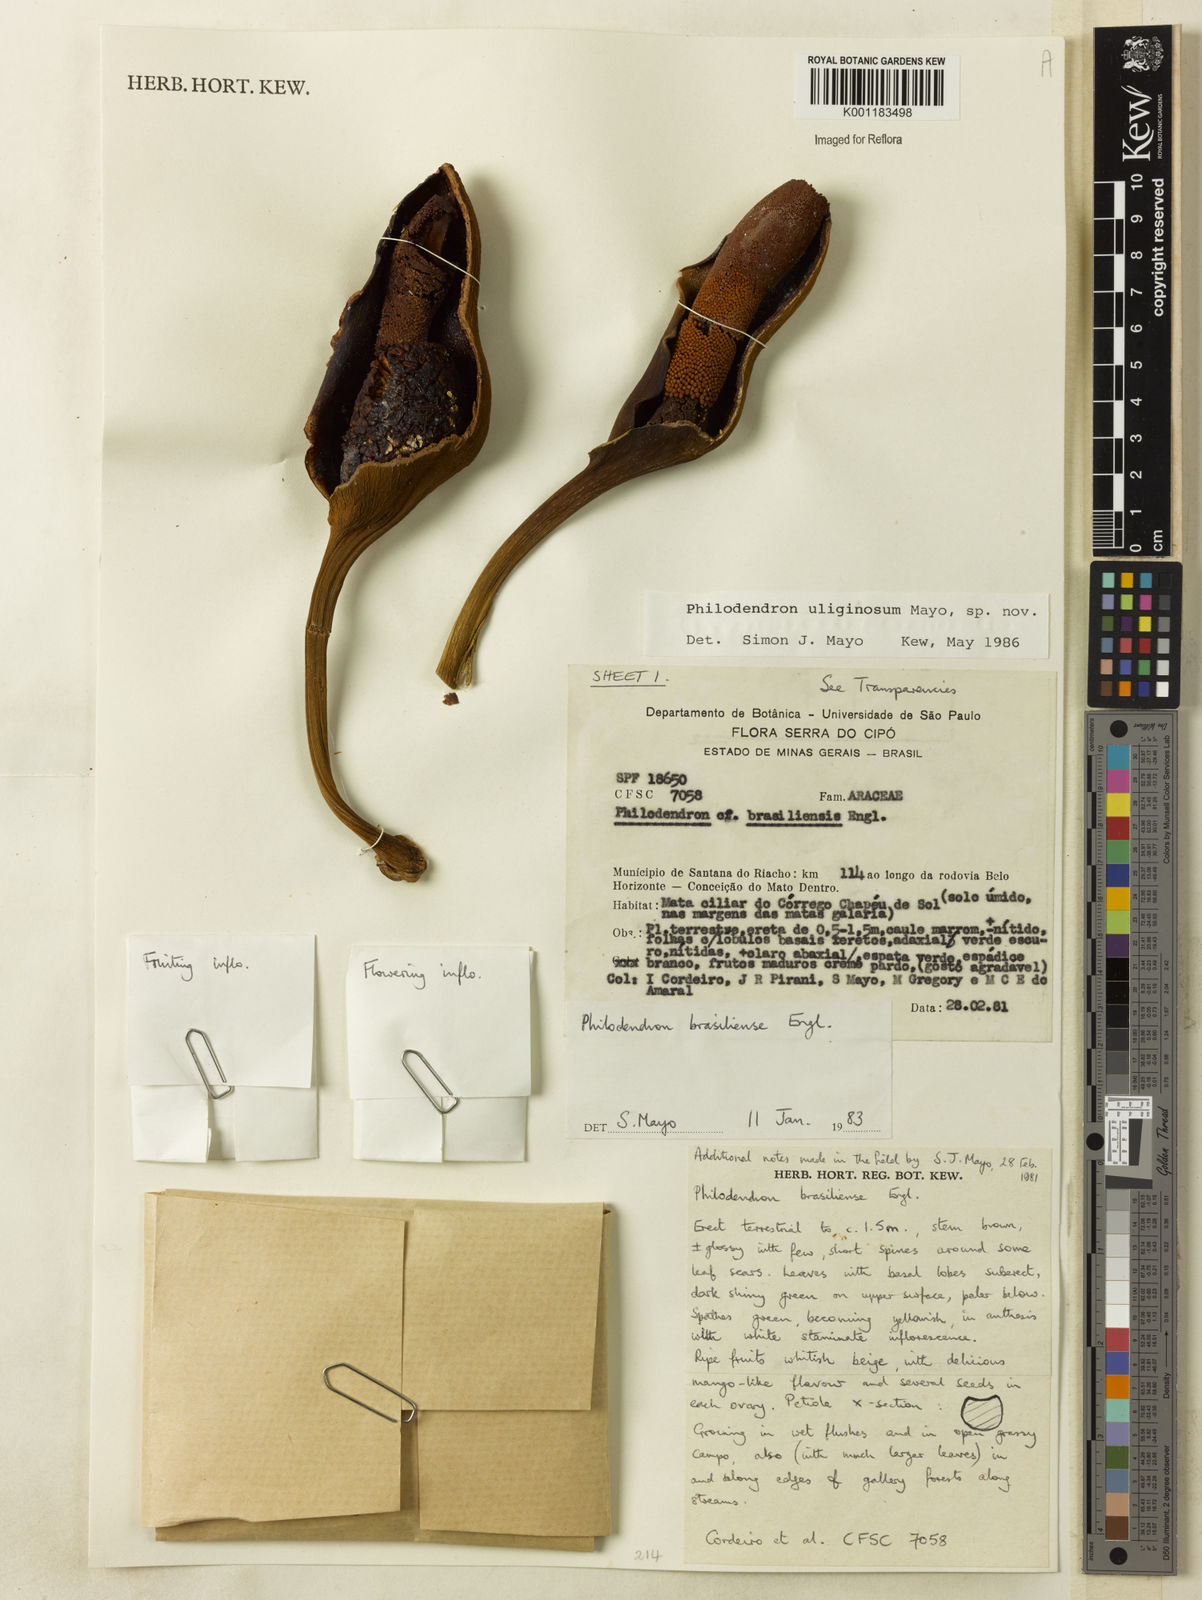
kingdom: Plantae
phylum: Tracheophyta
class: Liliopsida
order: Alismatales
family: Araceae
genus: Thaumatophyllum
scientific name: Thaumatophyllum uliginosum
